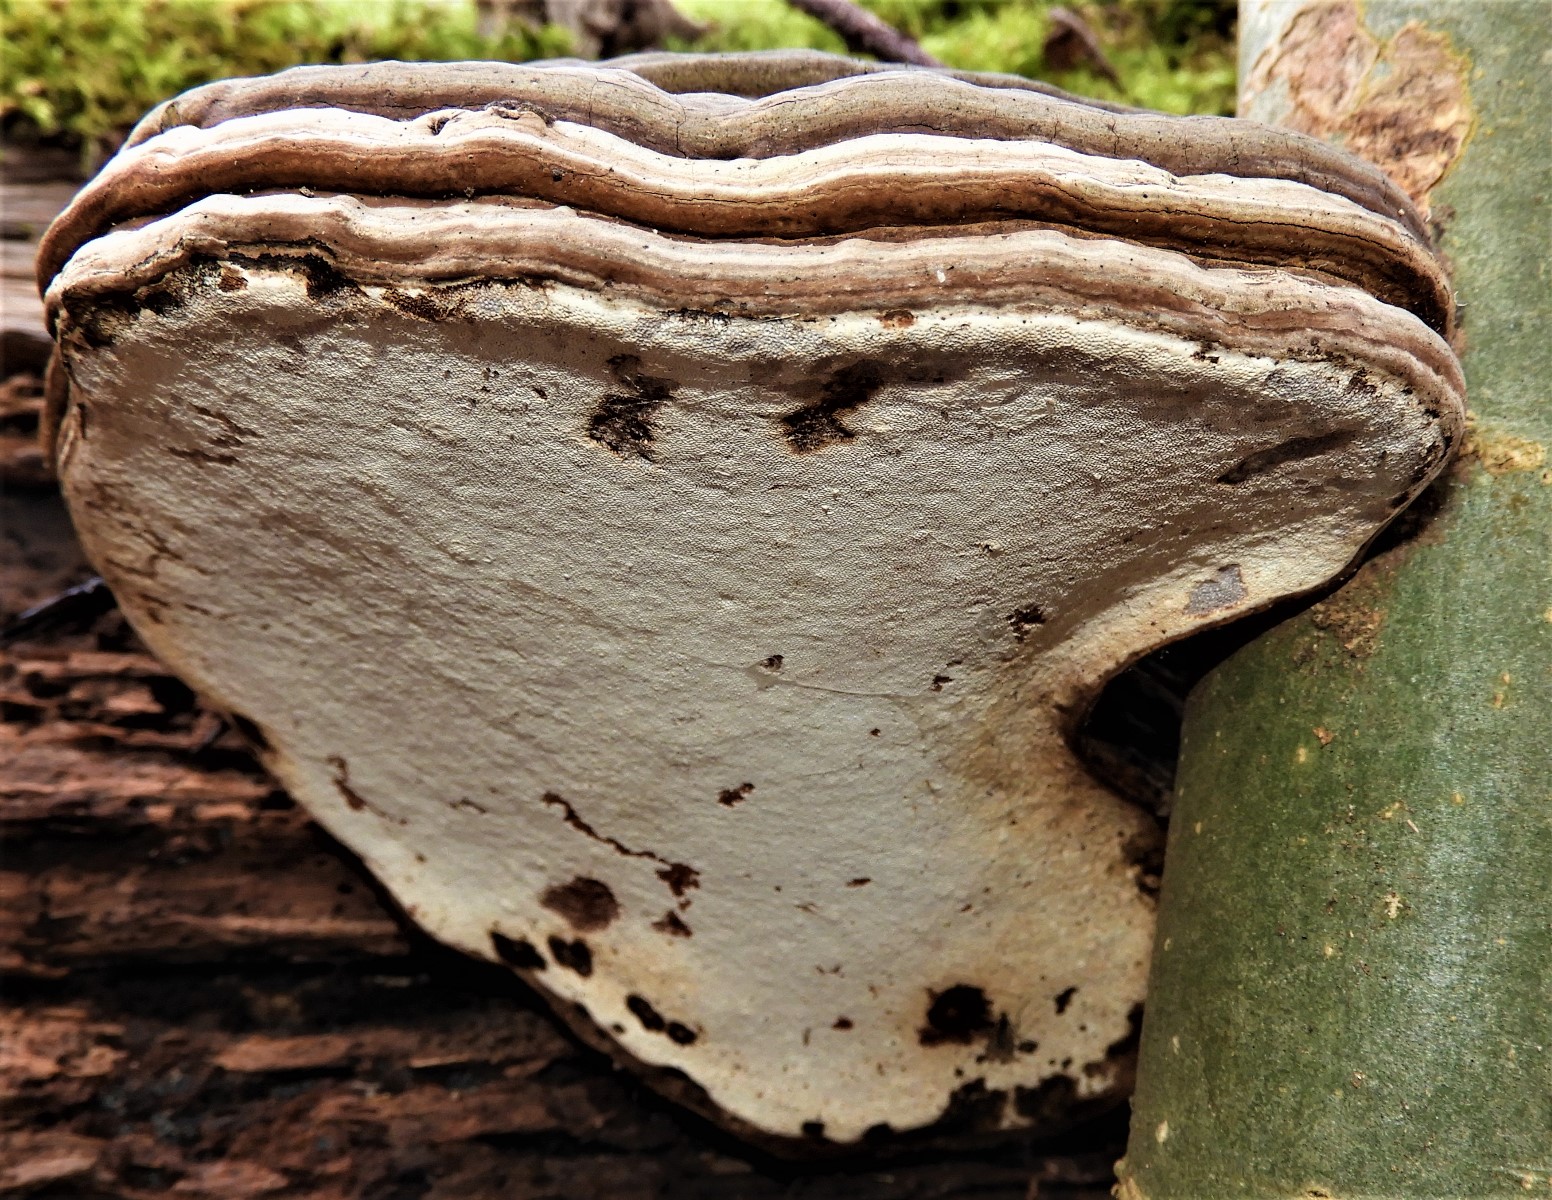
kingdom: Fungi
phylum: Basidiomycota
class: Agaricomycetes
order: Polyporales
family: Polyporaceae
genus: Ganoderma
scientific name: Ganoderma applanatum
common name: flad lakporesvamp
